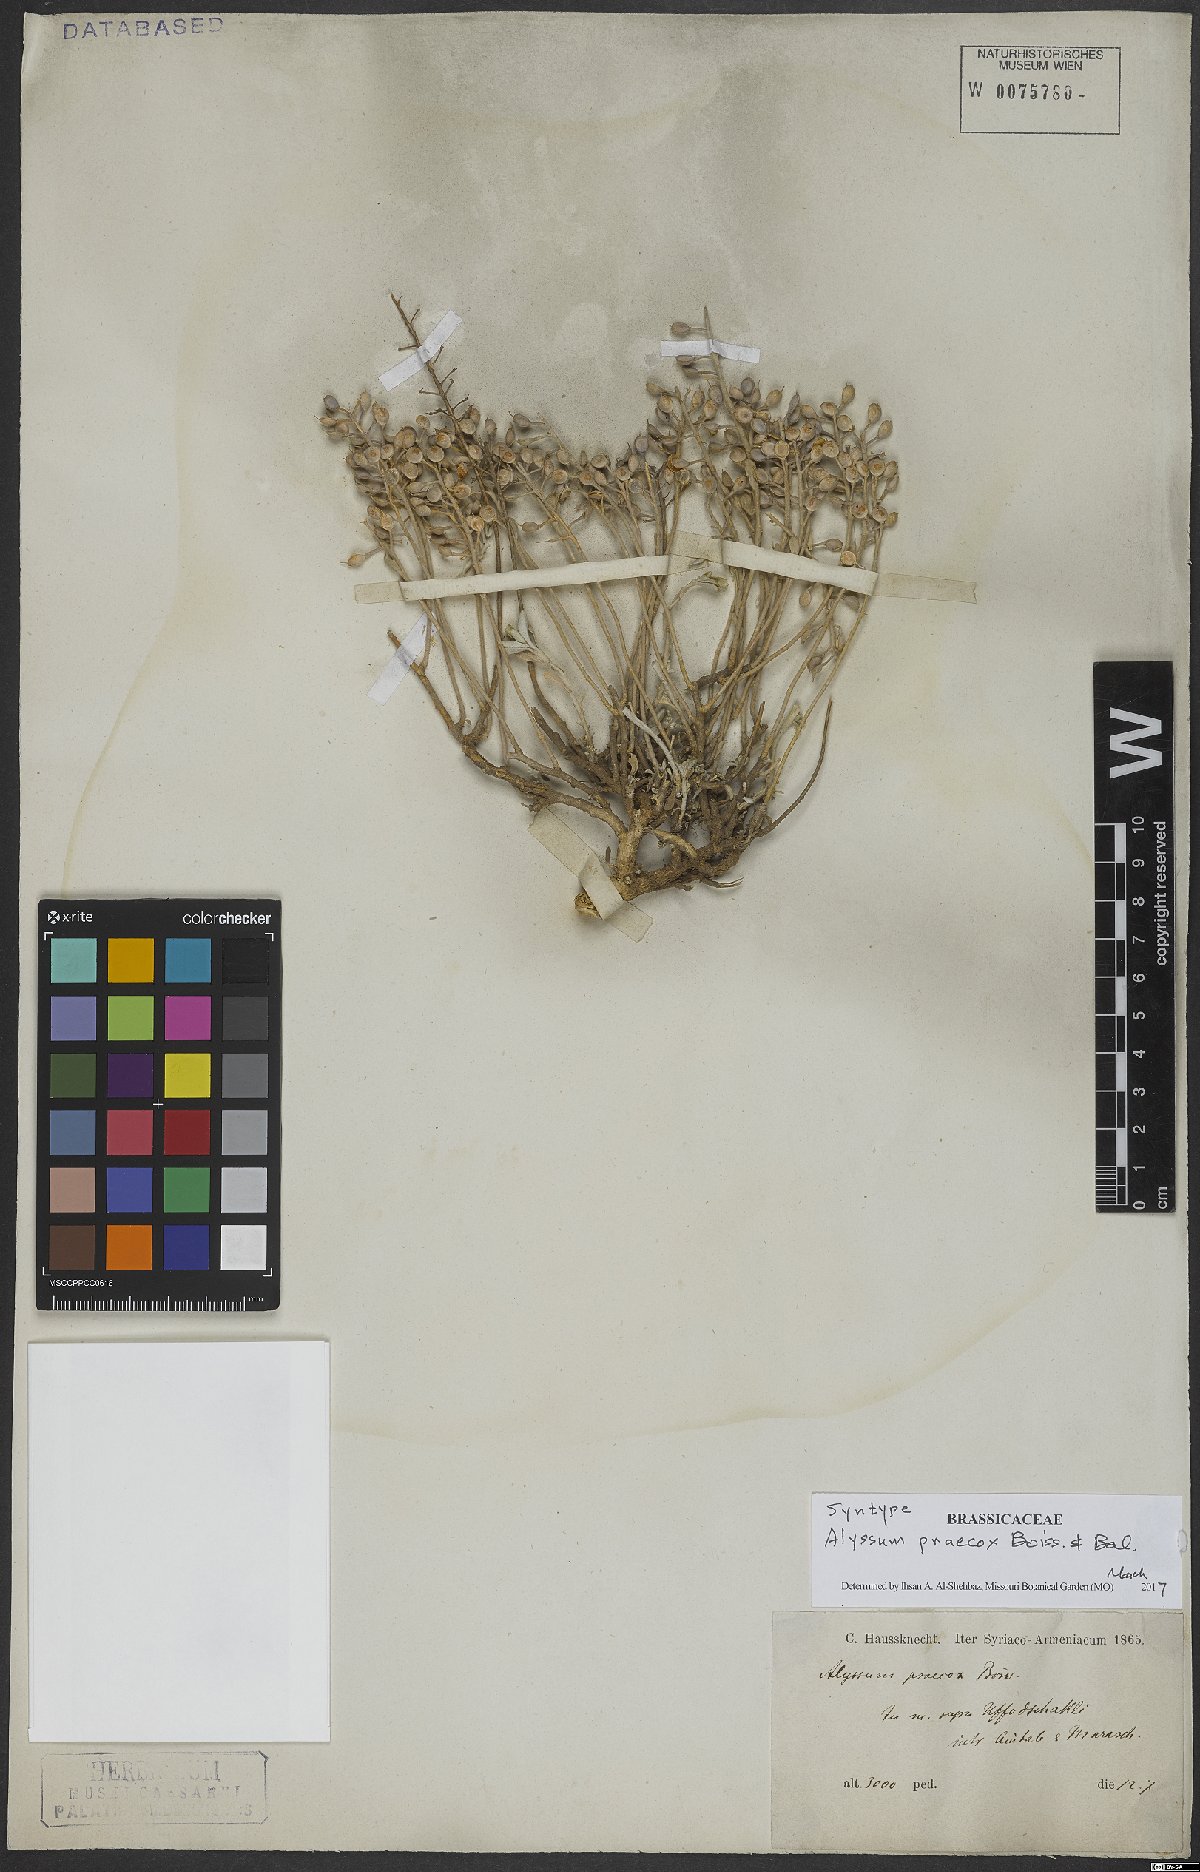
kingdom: Plantae
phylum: Tracheophyta
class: Magnoliopsida
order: Brassicales
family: Brassicaceae
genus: Alyssum
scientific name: Alyssum praecox
